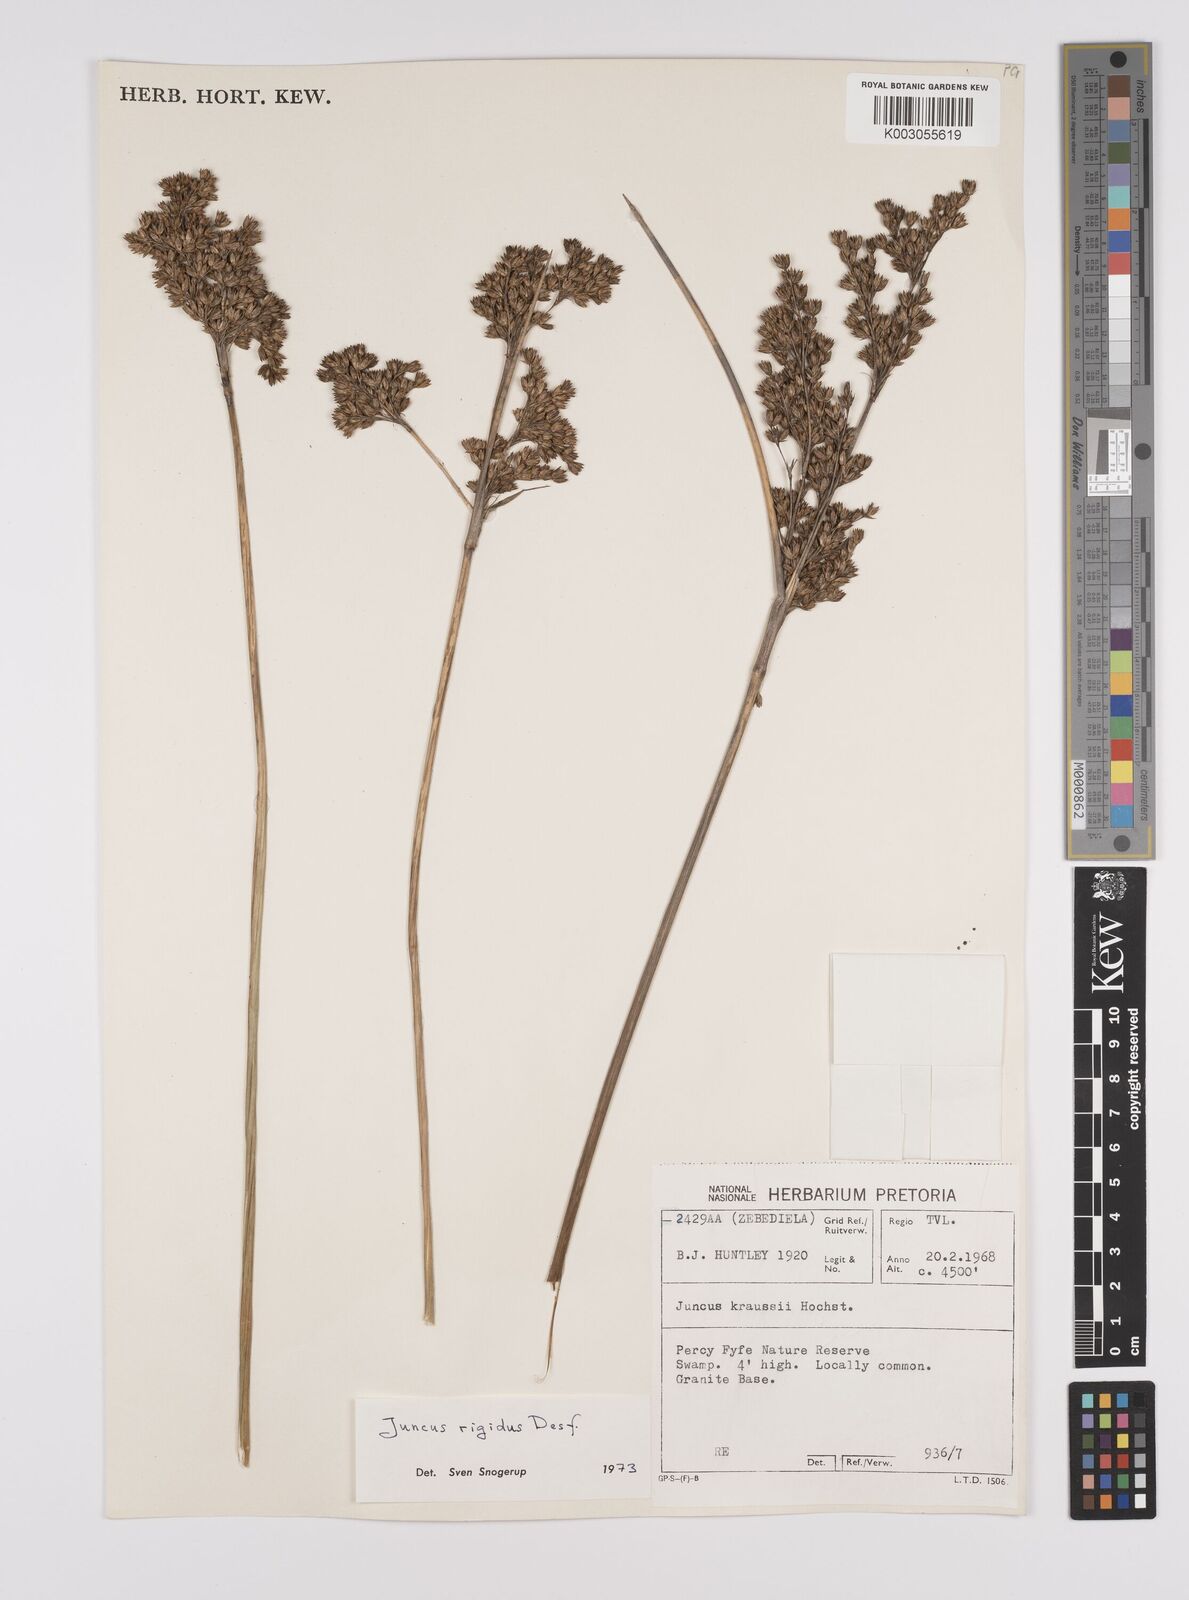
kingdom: Plantae
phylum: Tracheophyta
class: Liliopsida
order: Poales
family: Juncaceae
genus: Juncus
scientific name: Juncus rigidus
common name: Hard sea rush
